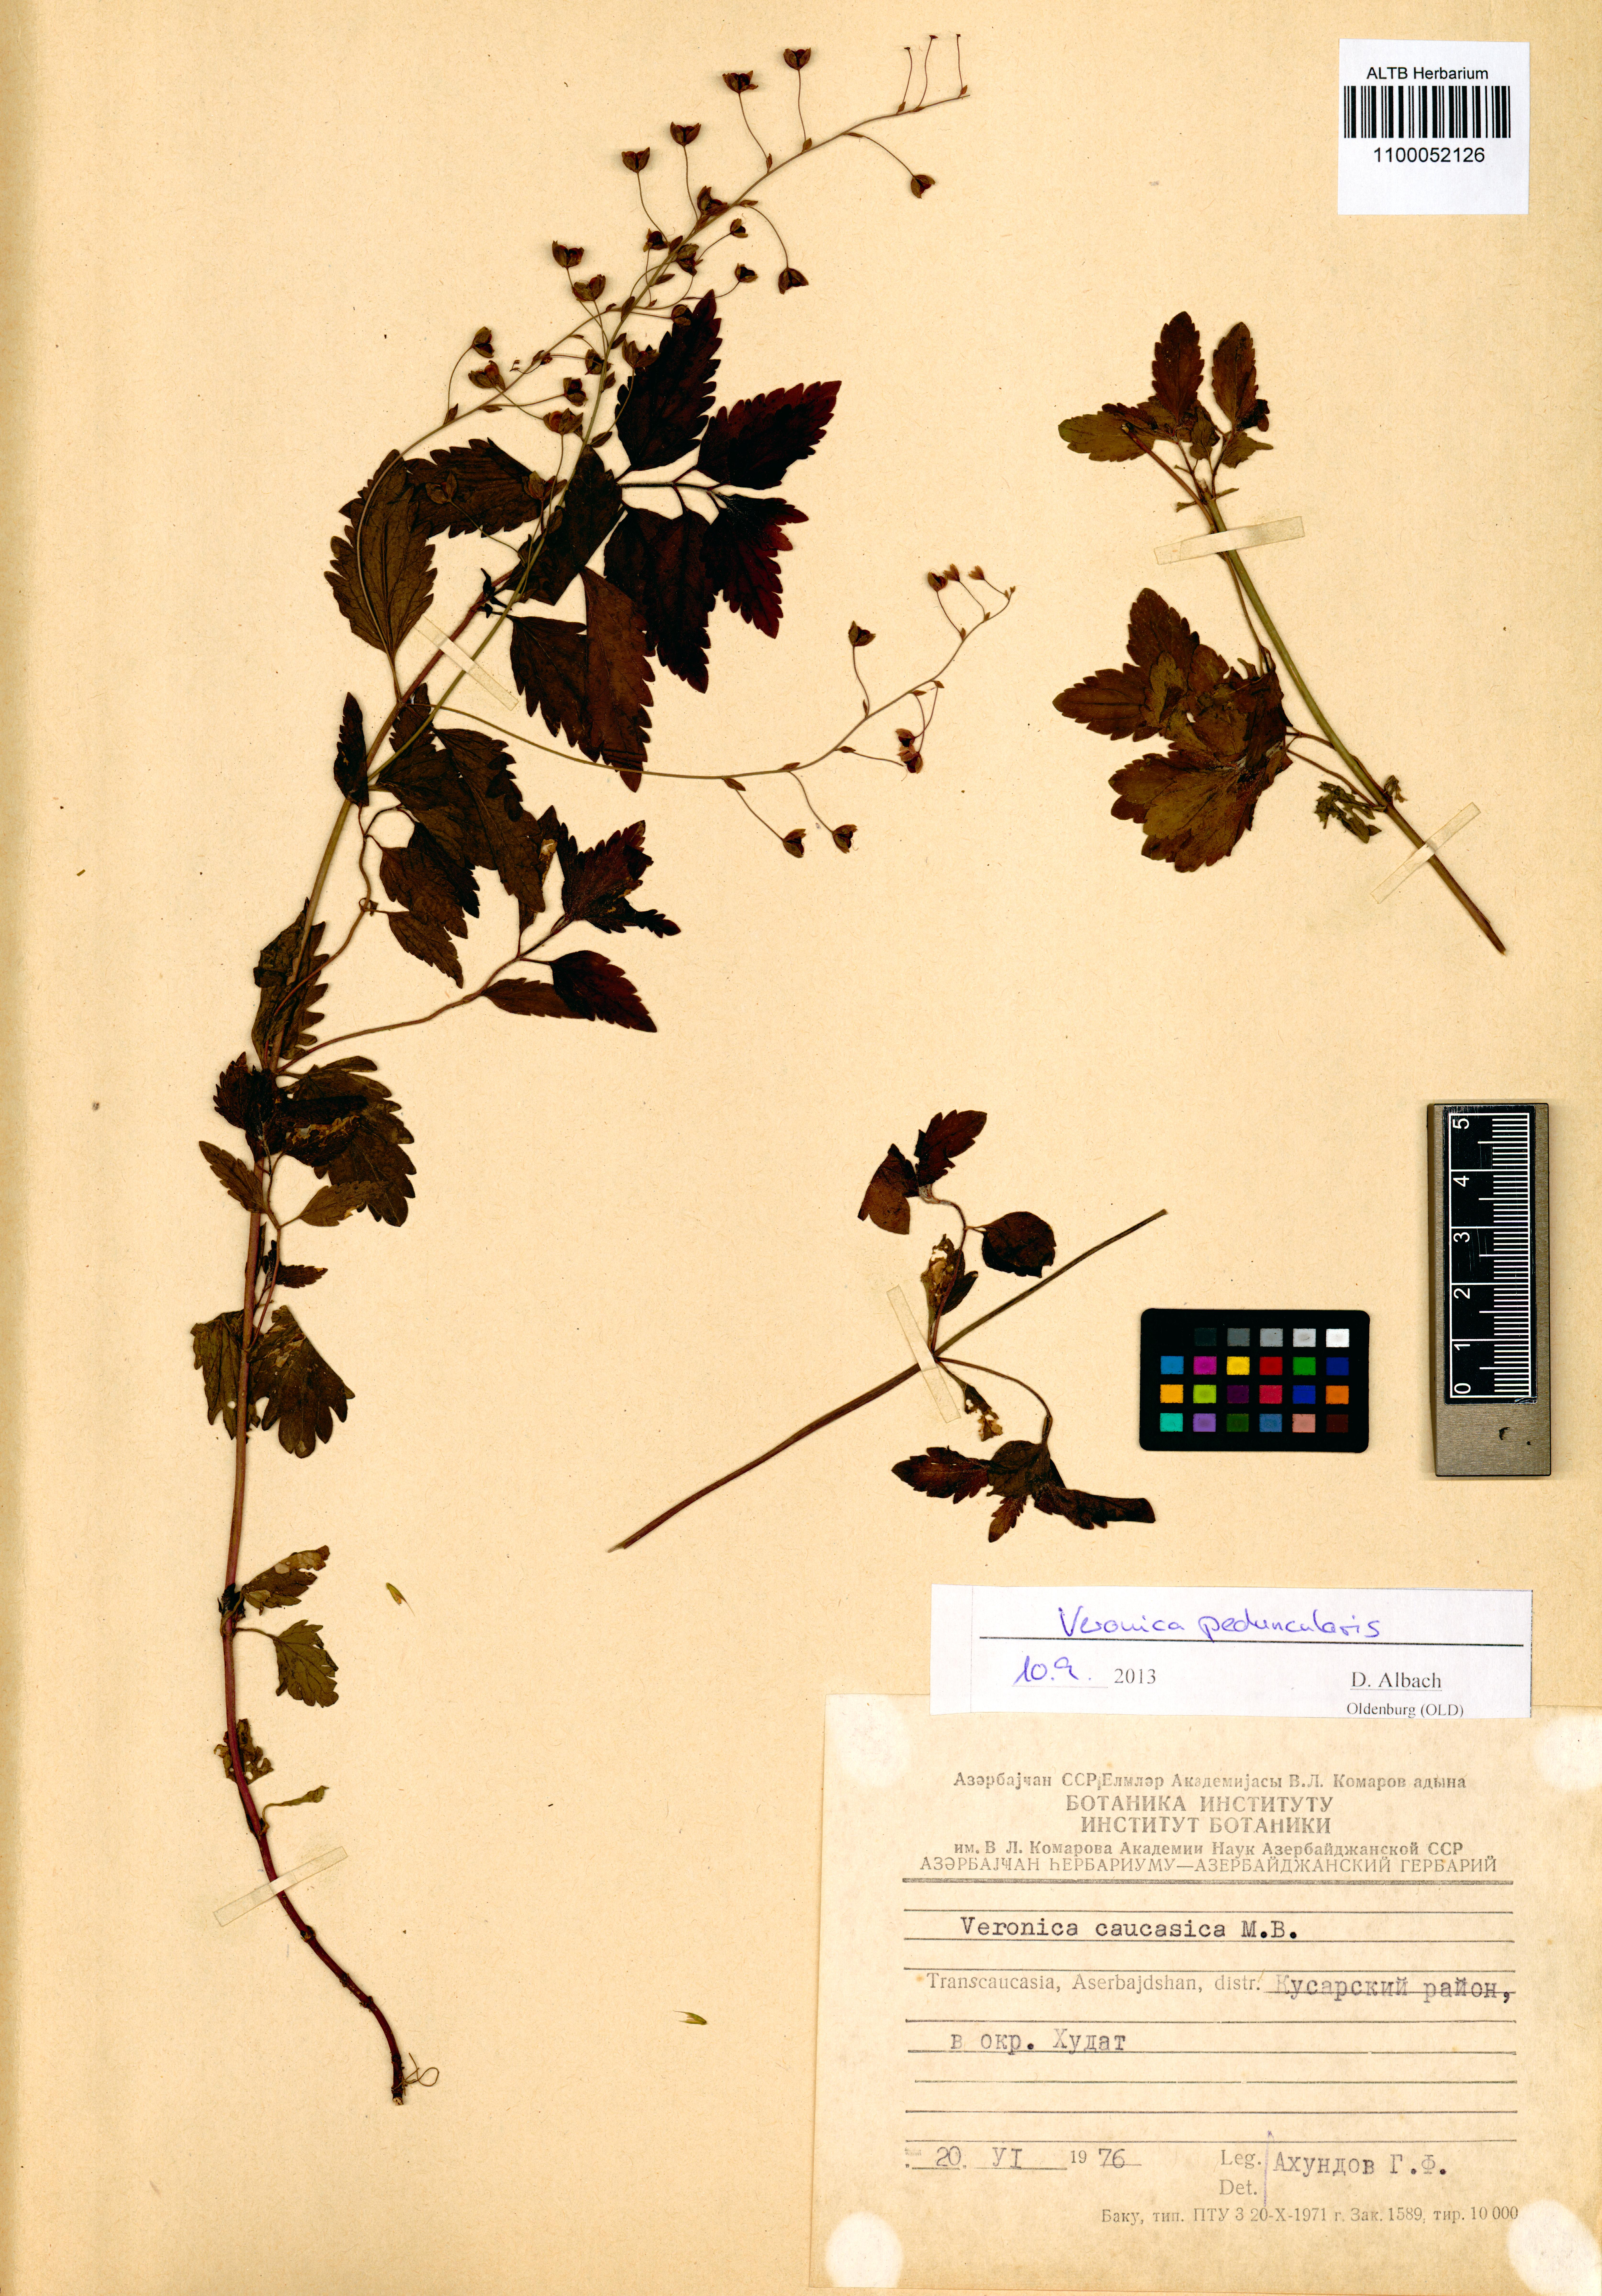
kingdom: Plantae
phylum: Tracheophyta
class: Magnoliopsida
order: Lamiales
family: Plantaginaceae
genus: Veronica
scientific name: Veronica peduncularis
